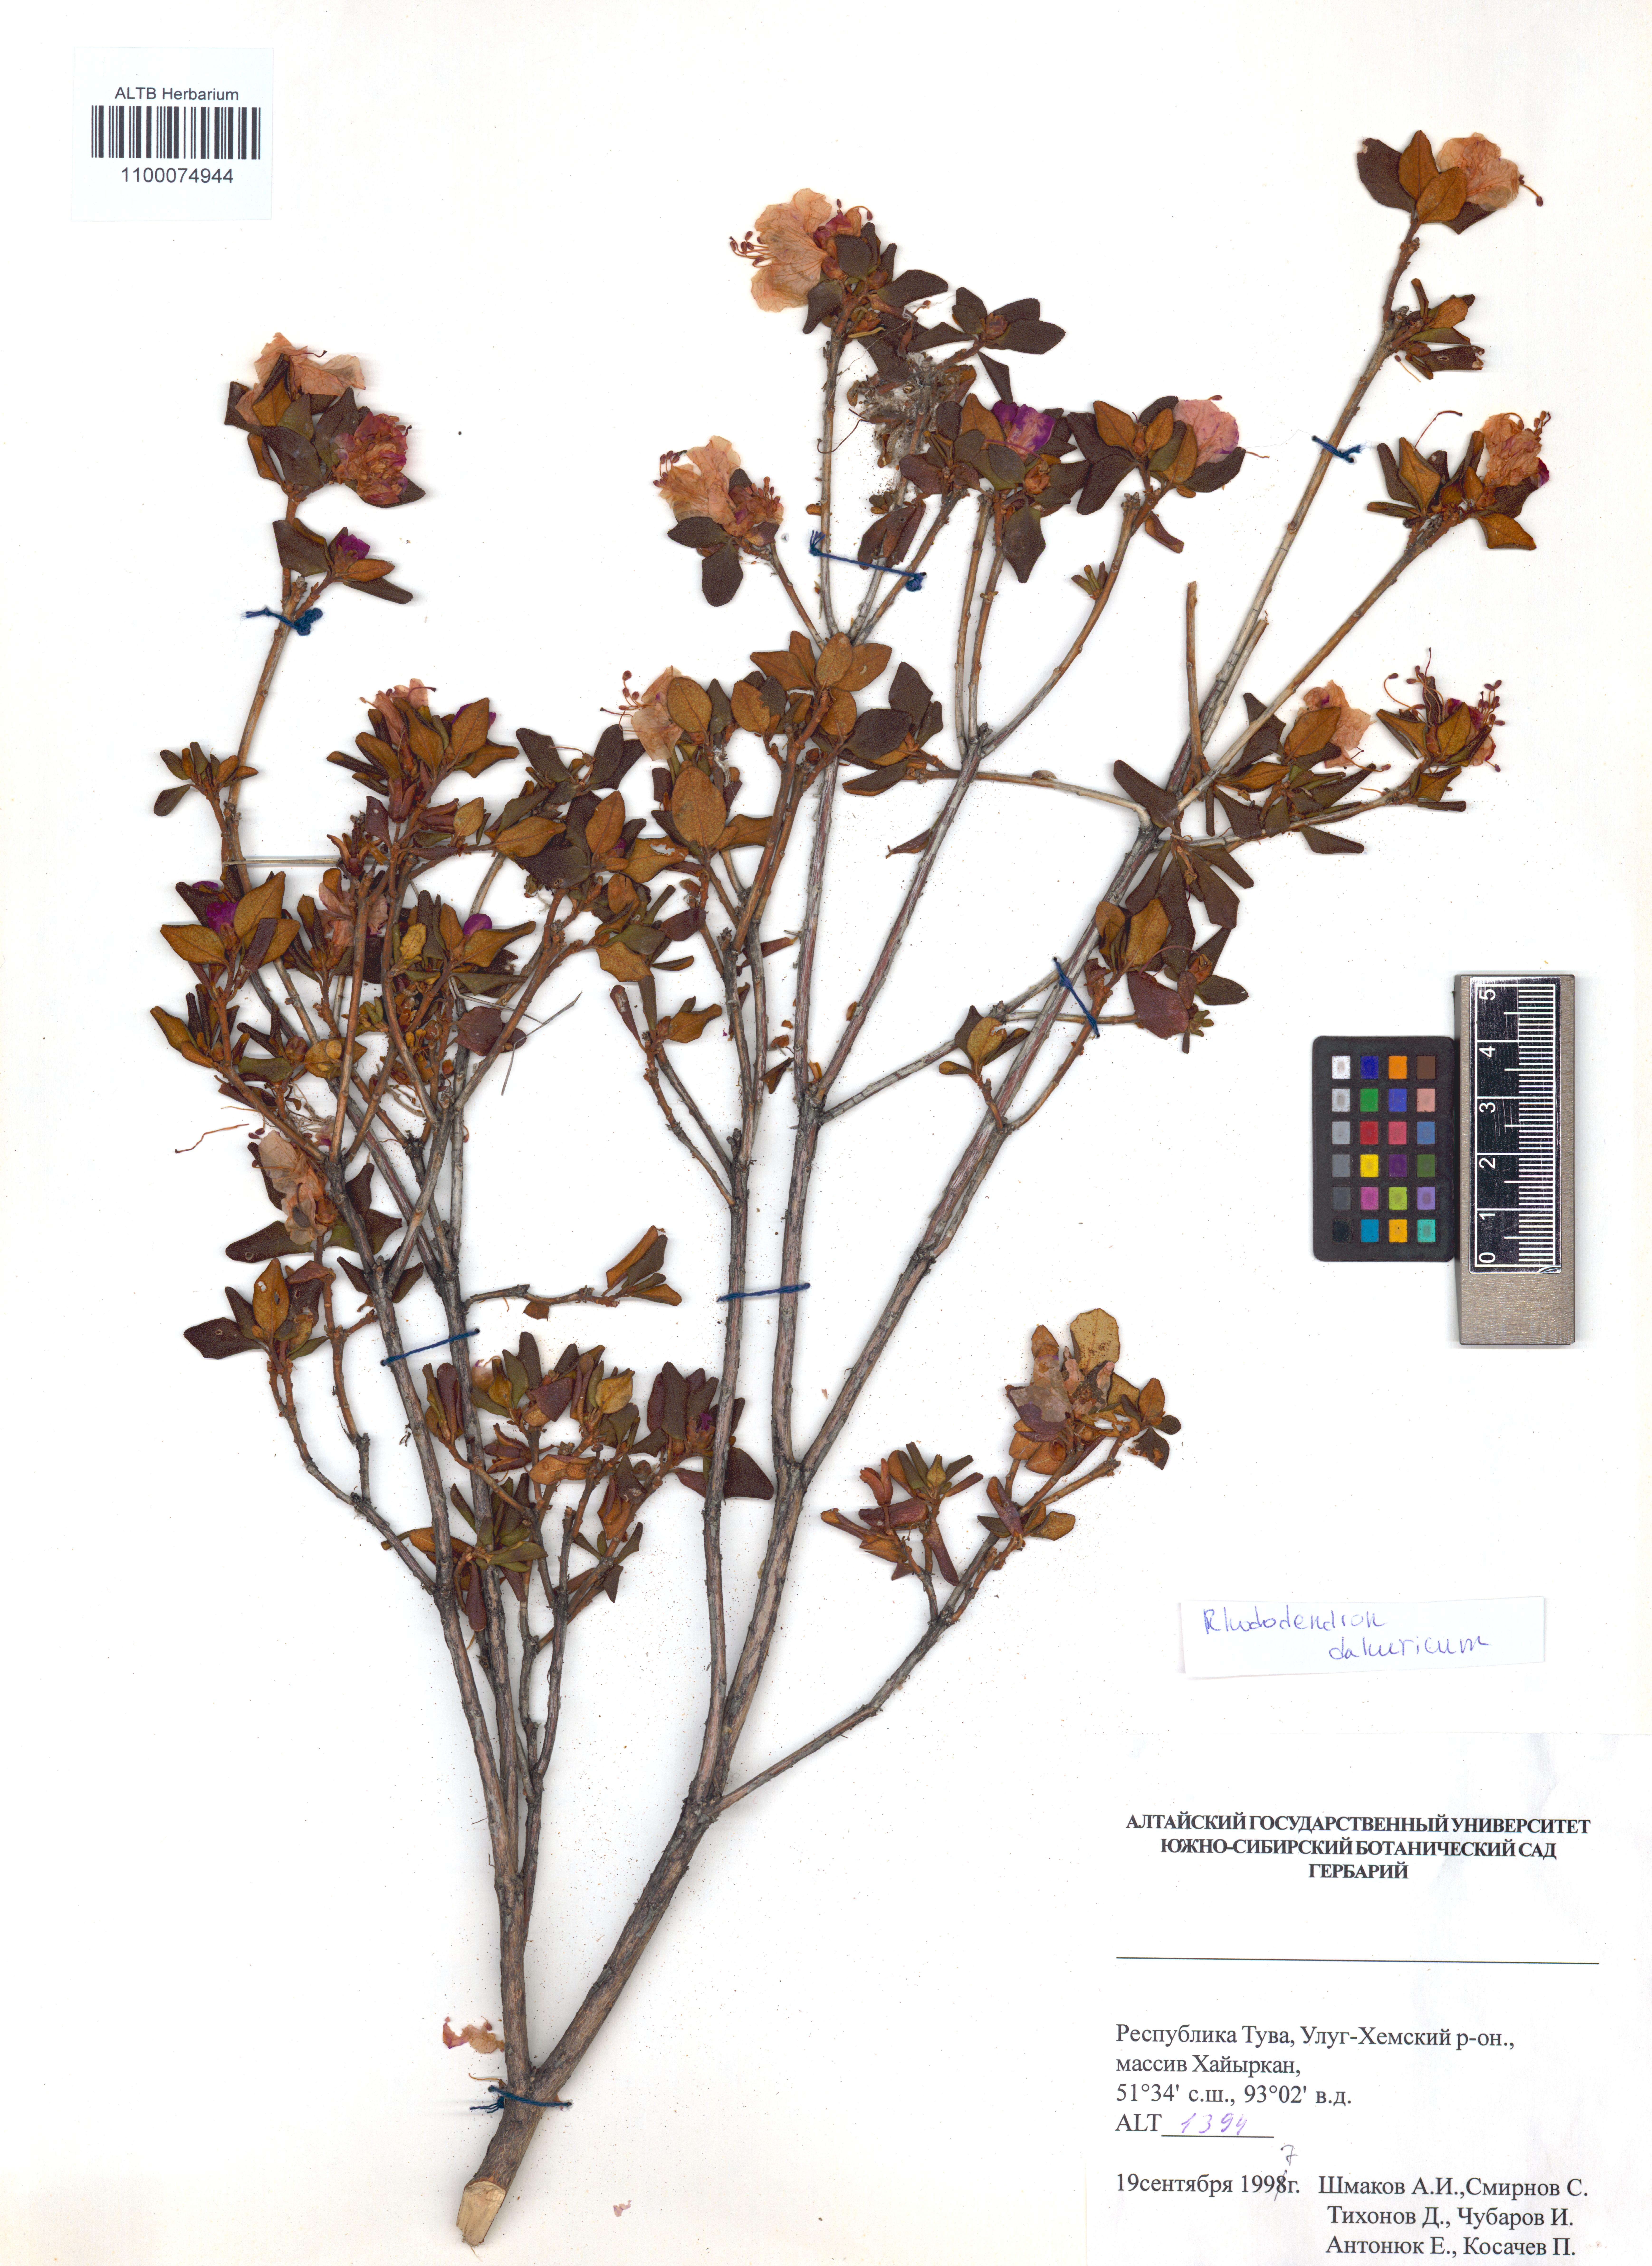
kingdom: Plantae
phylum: Tracheophyta
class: Magnoliopsida
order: Ericales
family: Ericaceae
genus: Rhododendron
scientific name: Rhododendron dauricum
